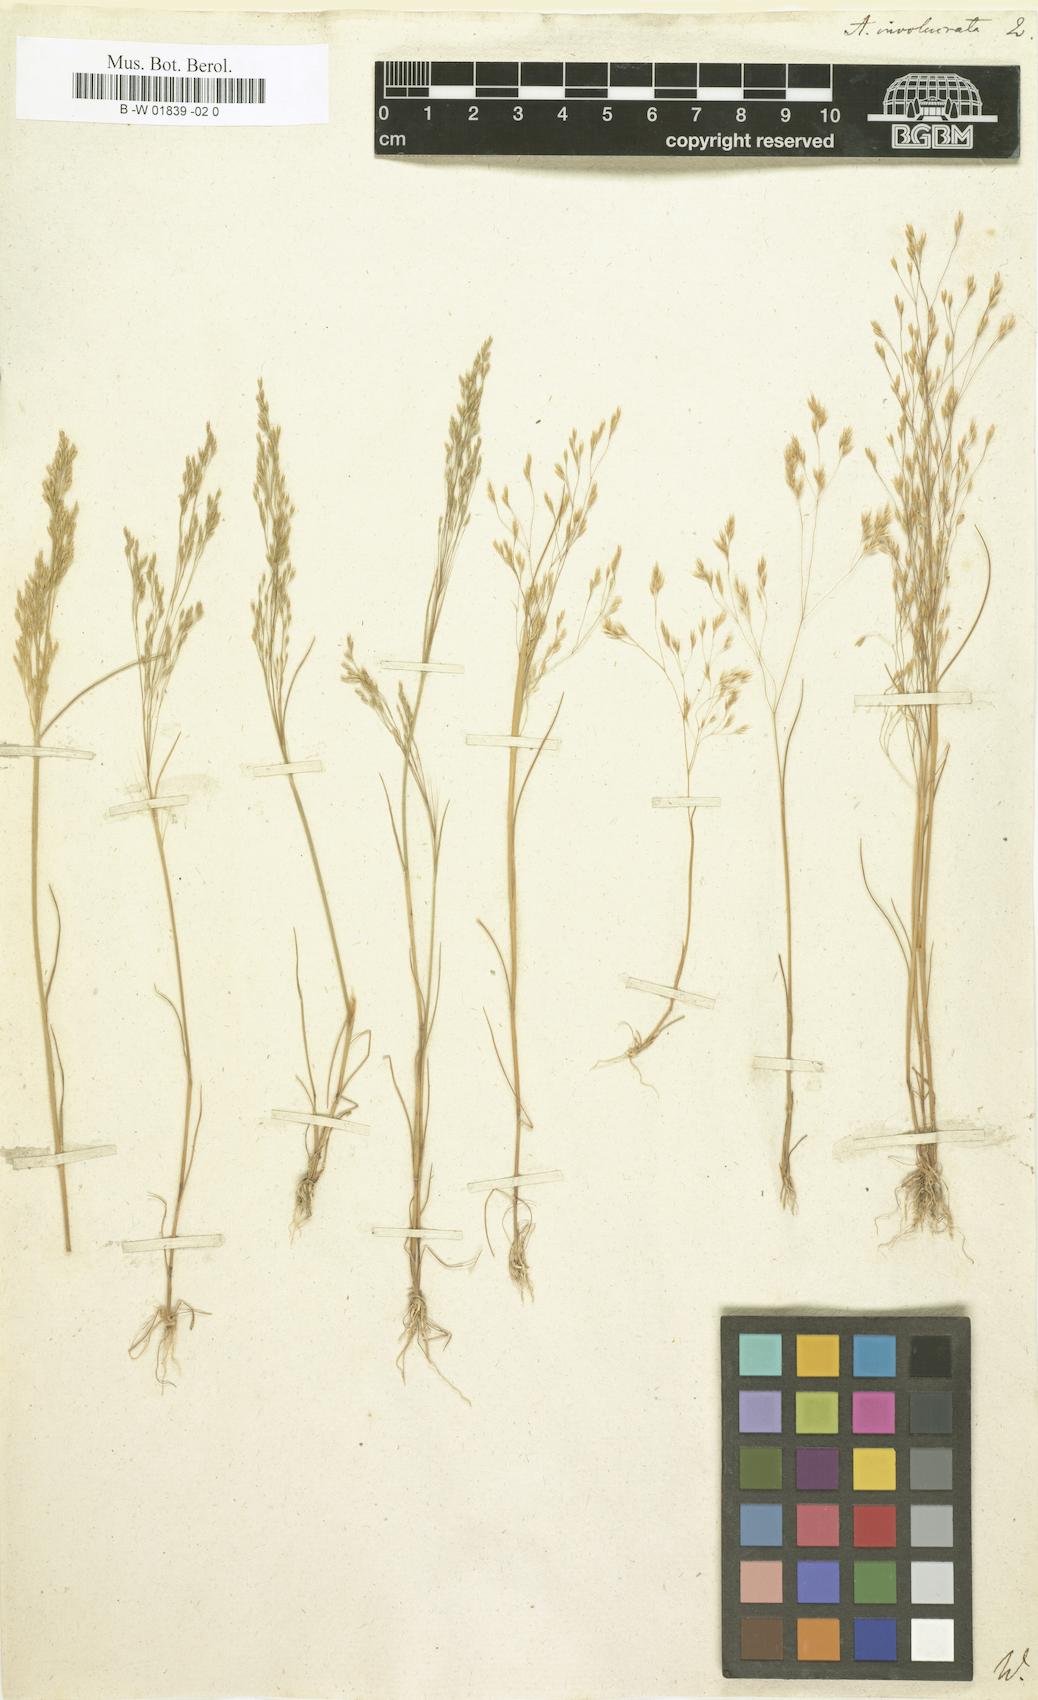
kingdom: Plantae
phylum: Tracheophyta
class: Liliopsida
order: Poales
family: Poaceae
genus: Periballia
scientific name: Periballia involucrata
